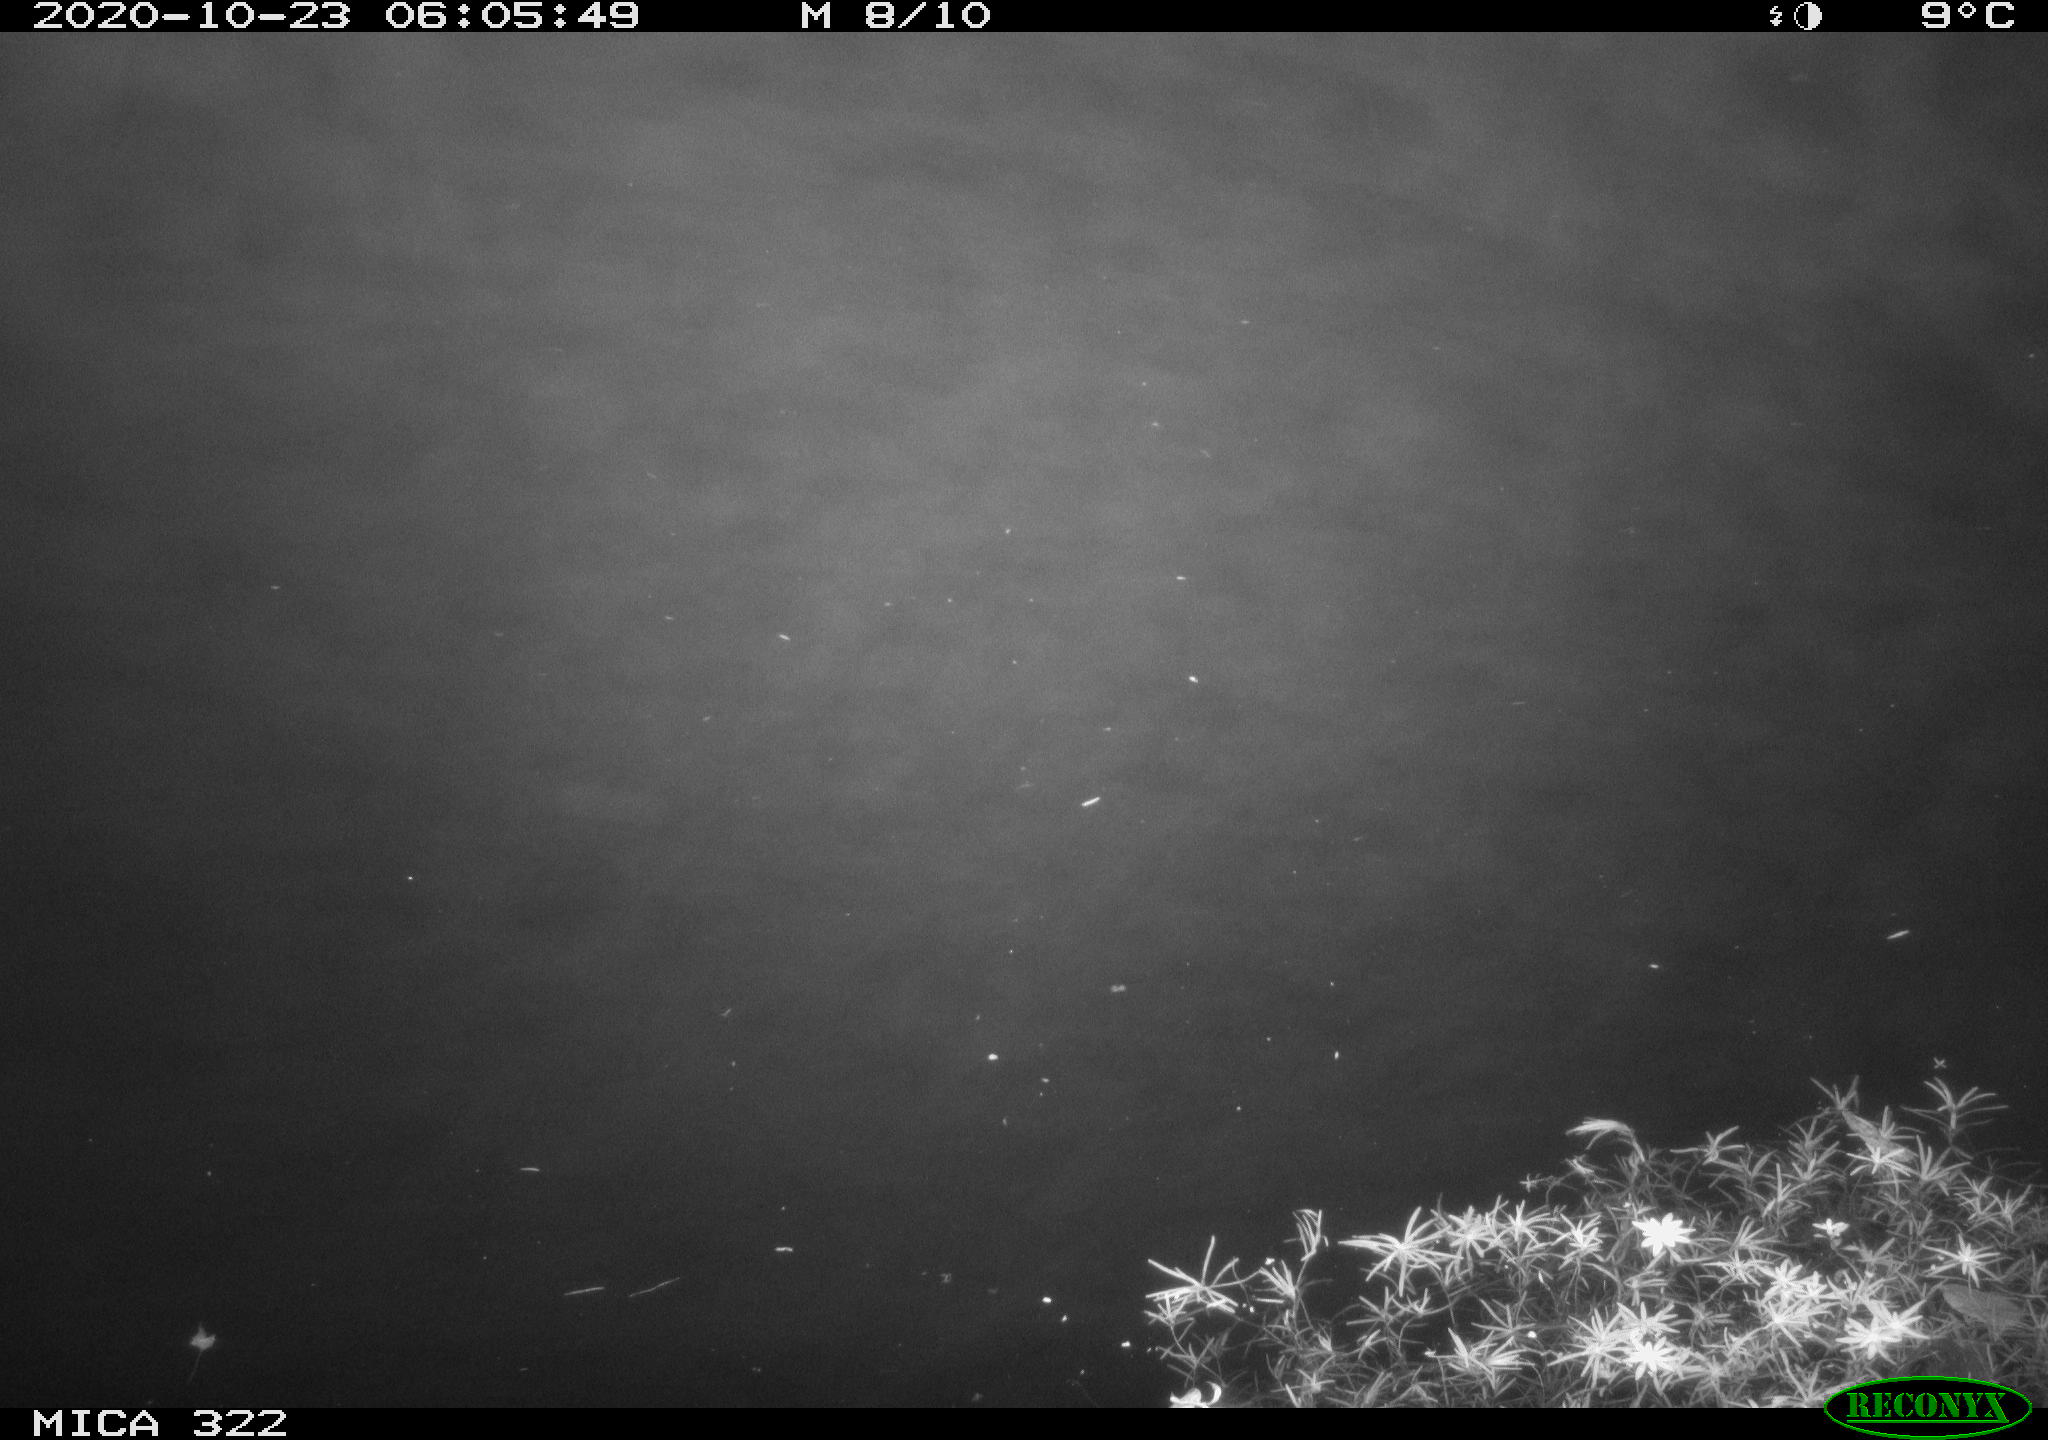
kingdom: Animalia
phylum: Chordata
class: Mammalia
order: Rodentia
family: Muridae
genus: Rattus
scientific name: Rattus norvegicus
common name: Brown rat
